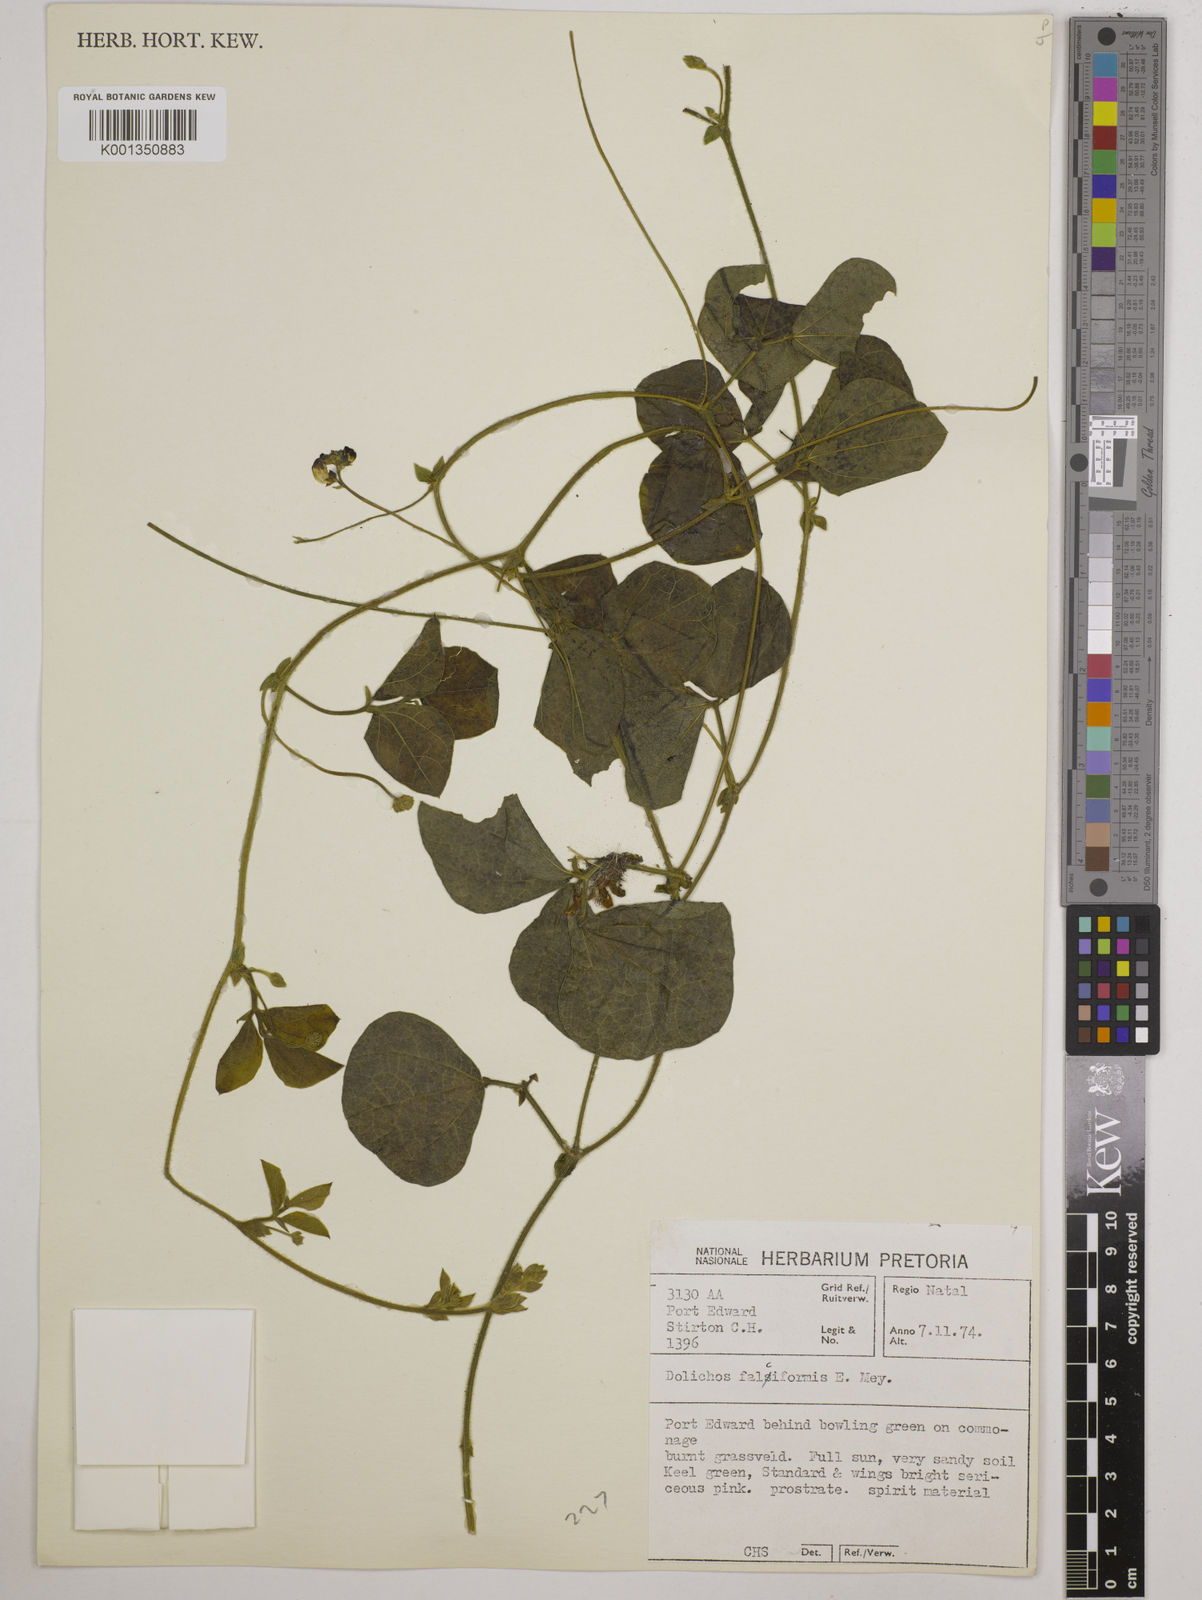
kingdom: Plantae
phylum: Tracheophyta
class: Magnoliopsida
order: Fabales
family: Fabaceae
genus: Dolichos
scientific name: Dolichos falciformis
